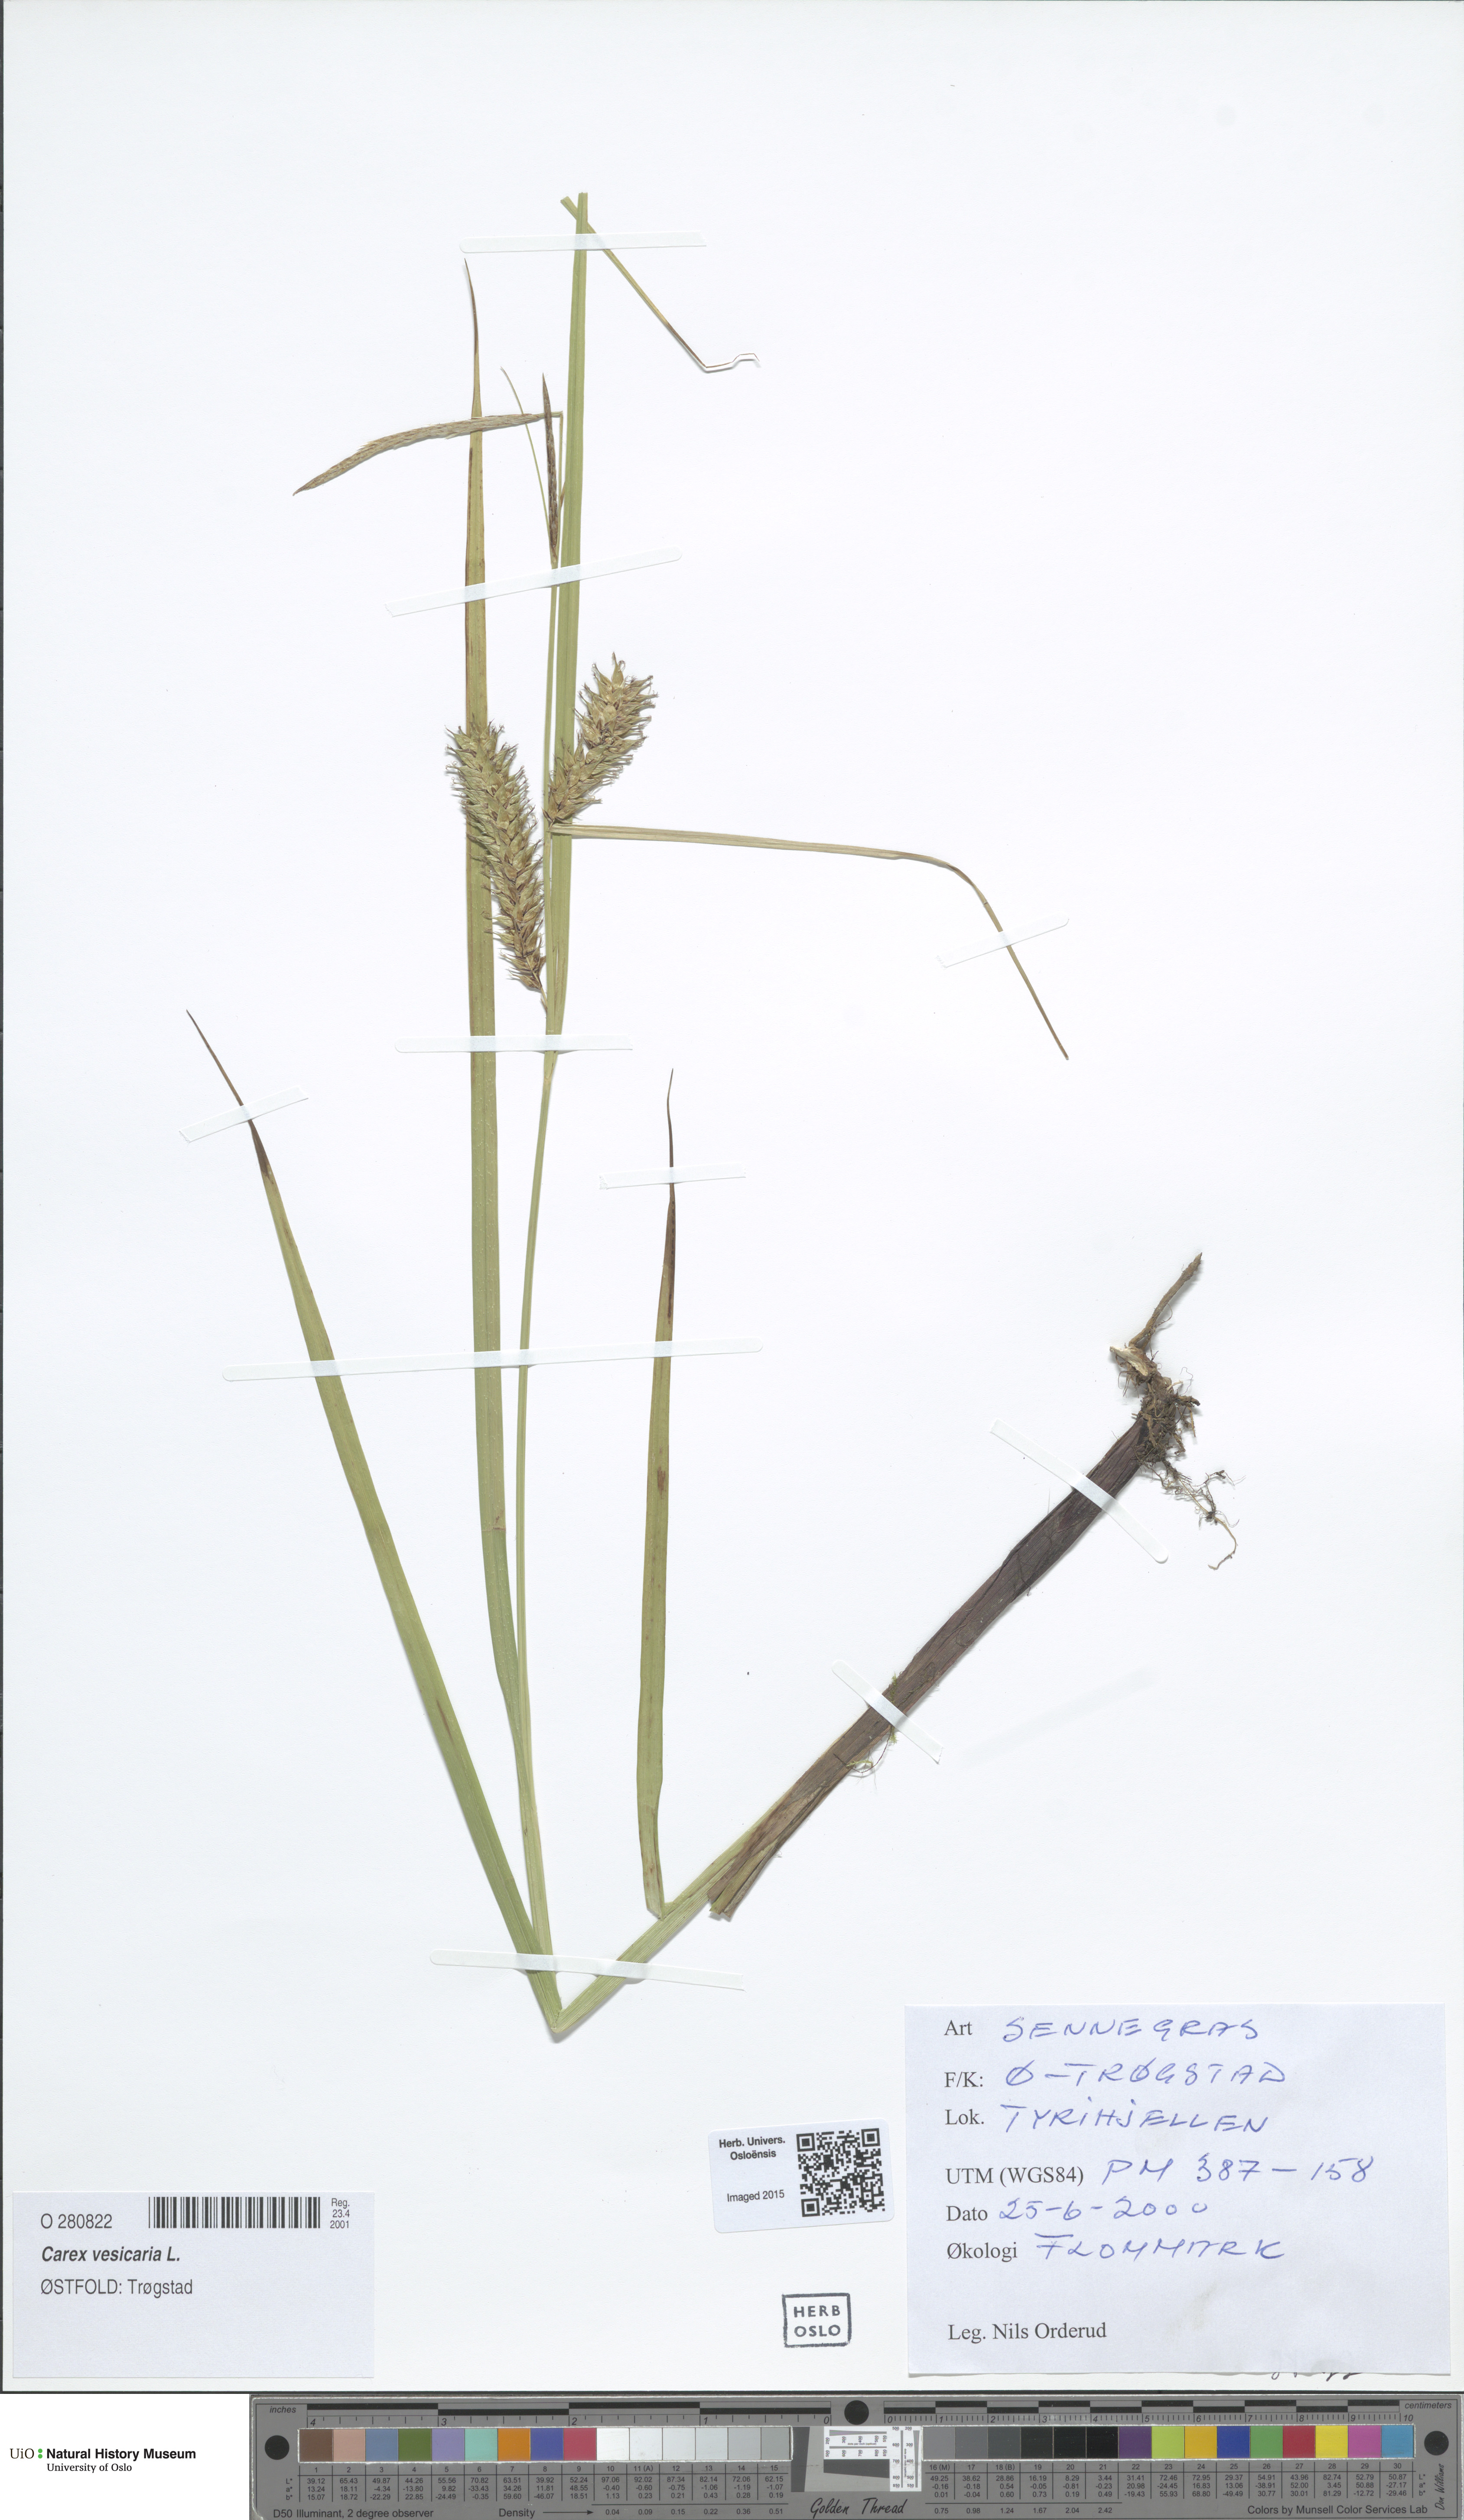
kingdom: Plantae
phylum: Tracheophyta
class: Liliopsida
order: Poales
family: Cyperaceae
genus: Carex
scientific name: Carex vesicaria
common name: Bladder-sedge
